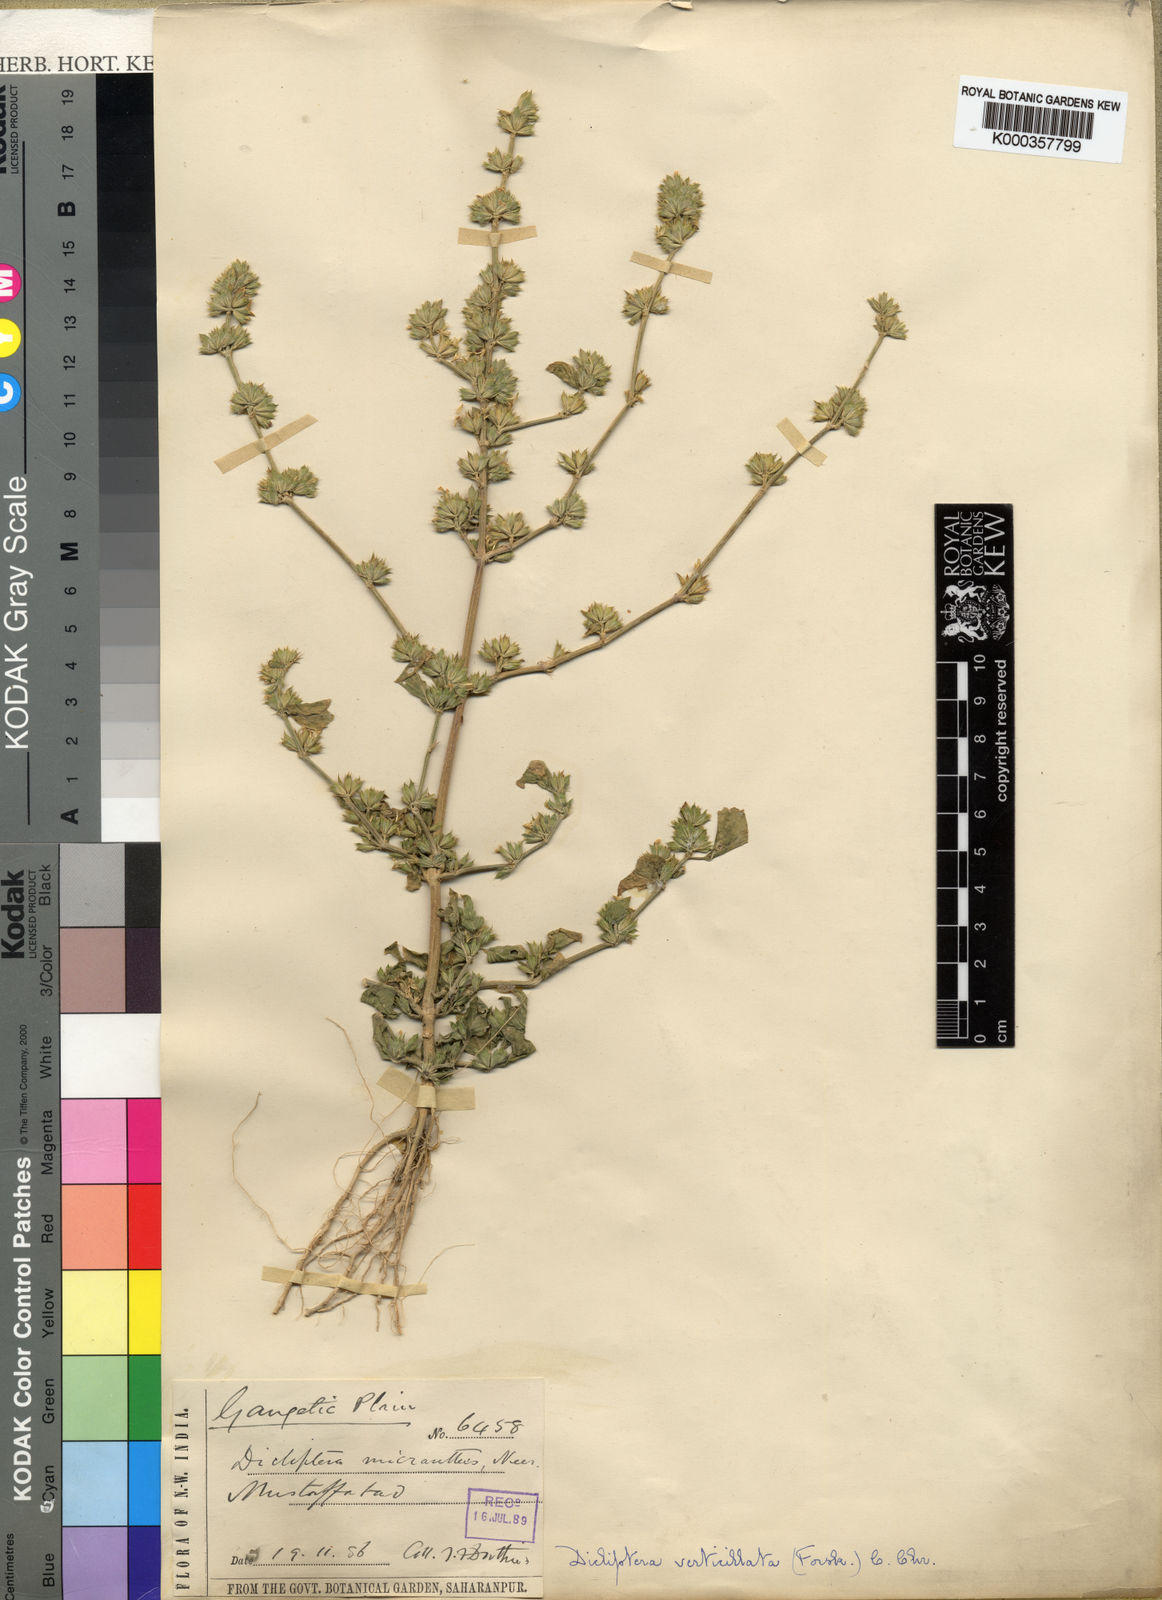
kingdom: Plantae
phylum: Tracheophyta
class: Magnoliopsida
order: Lamiales
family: Acanthaceae
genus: Dicliptera
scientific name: Dicliptera heterostegia
